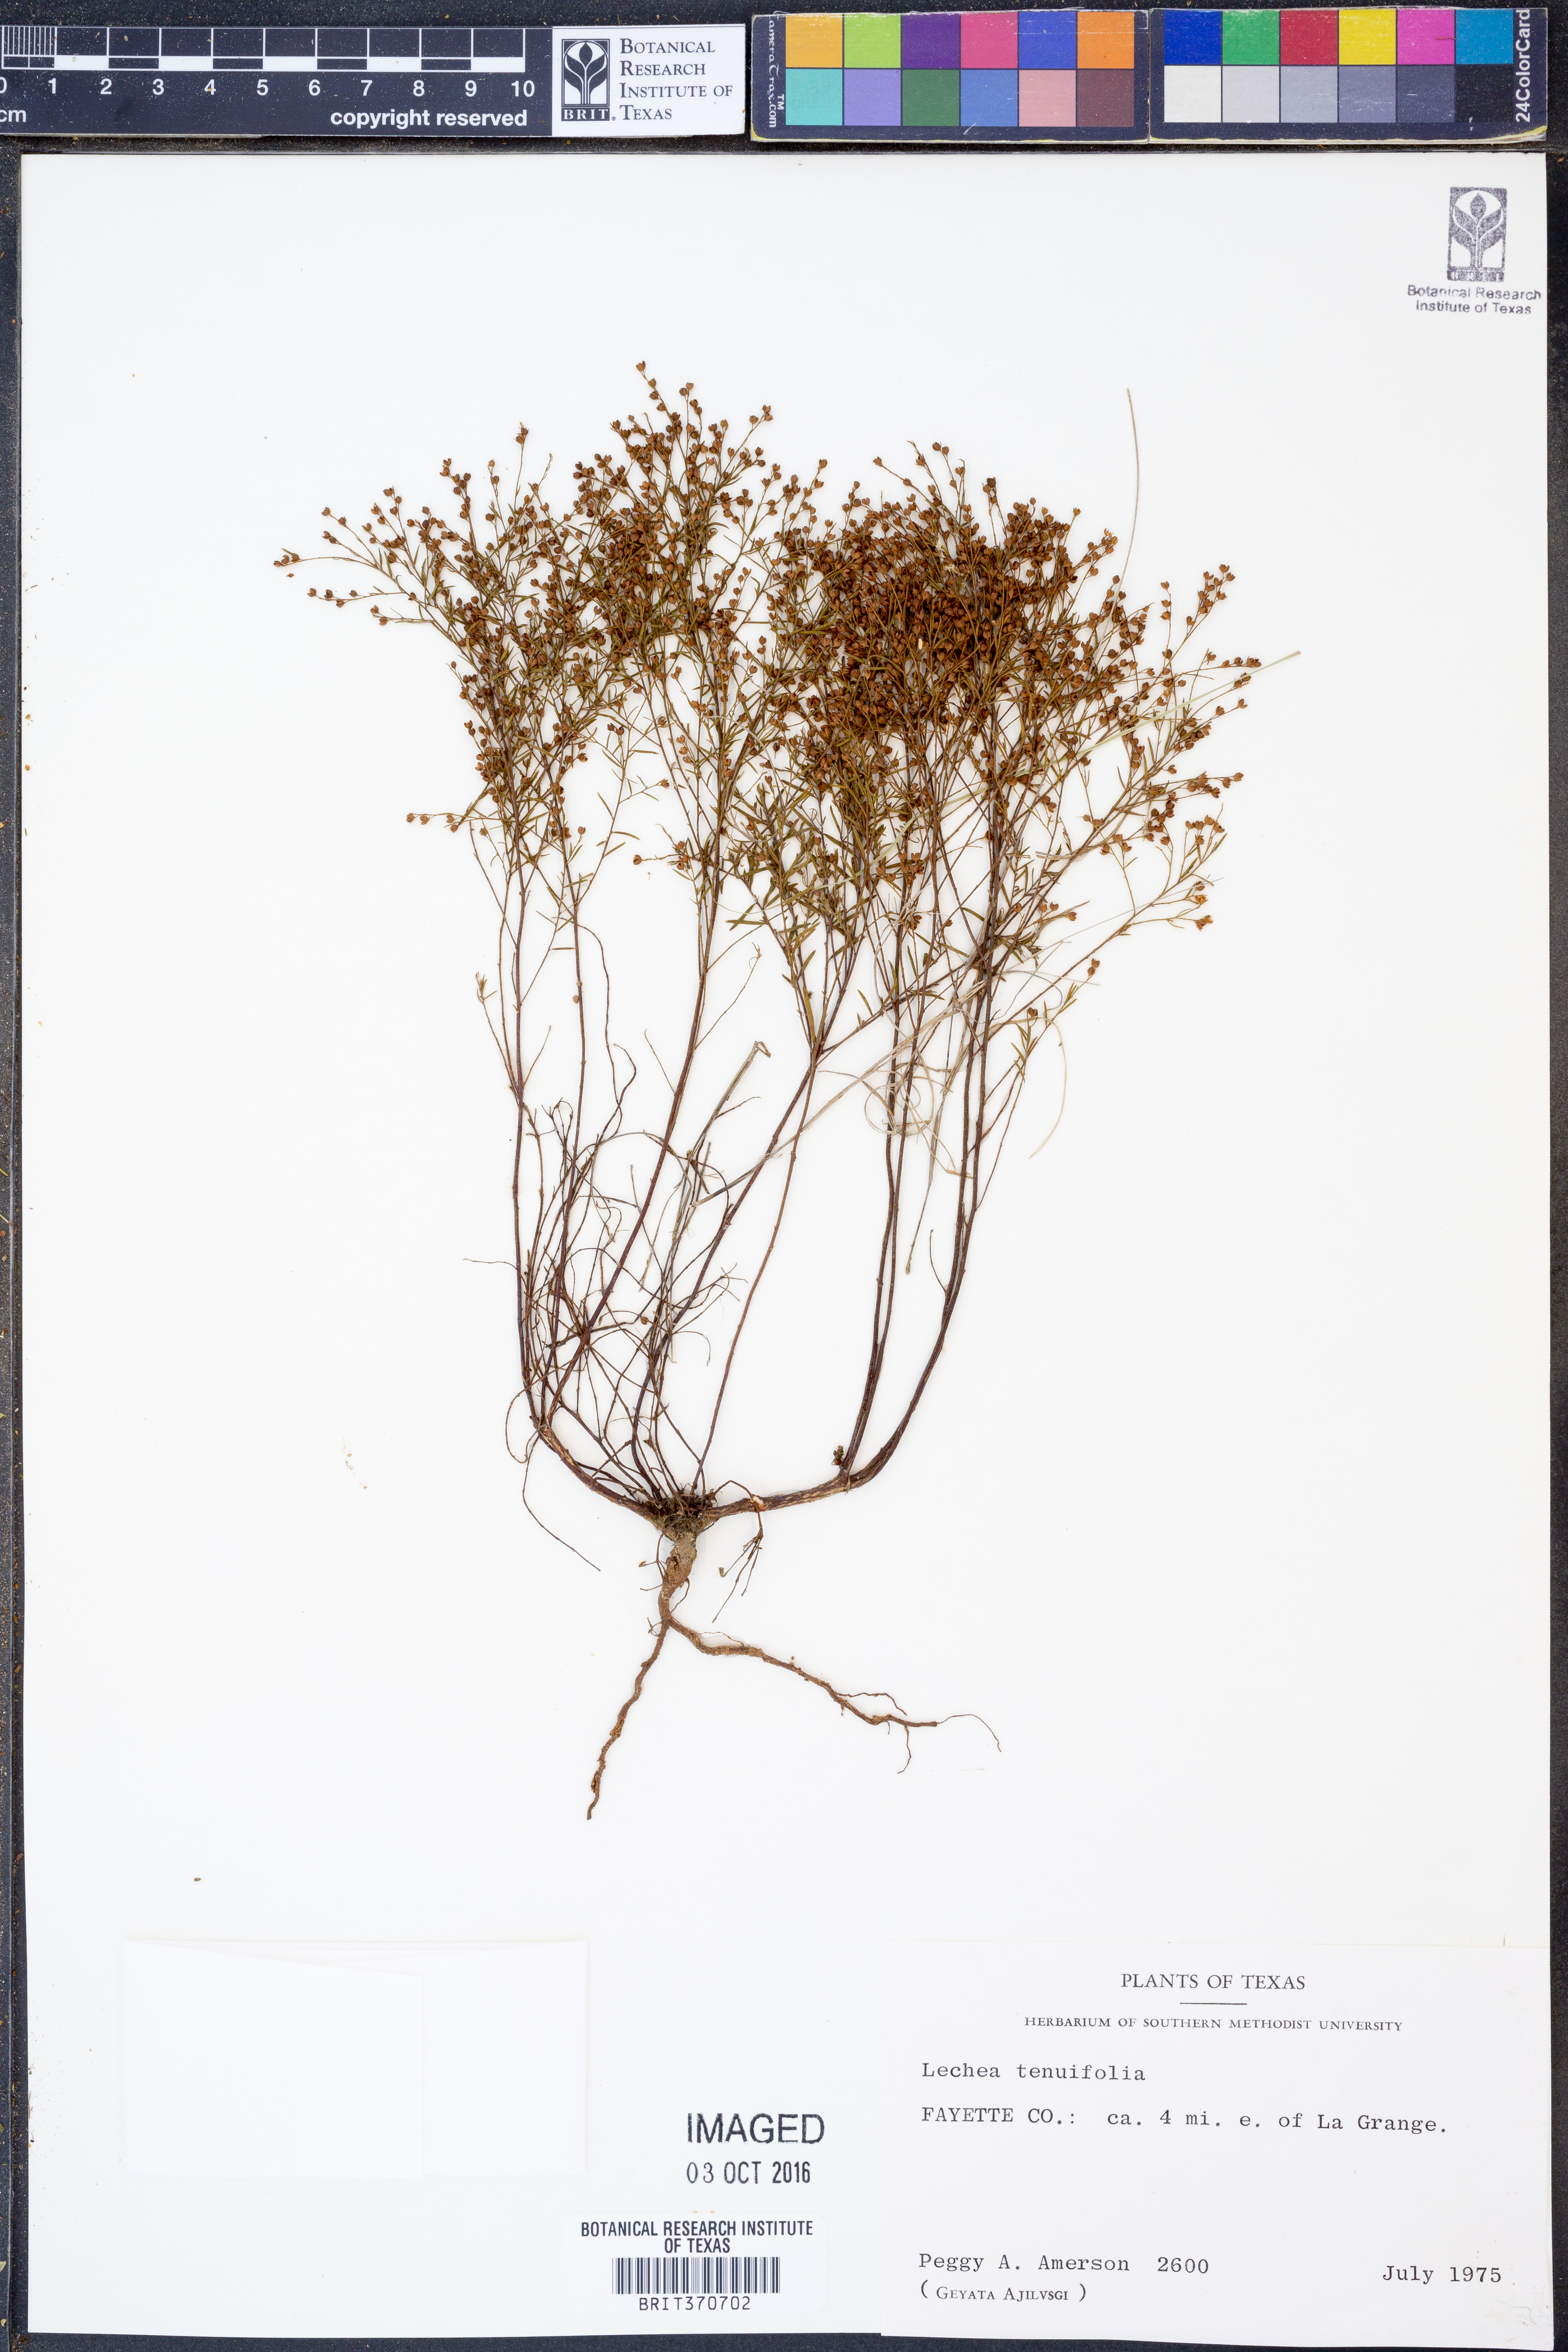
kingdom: Plantae
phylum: Tracheophyta
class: Magnoliopsida
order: Malvales
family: Cistaceae
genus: Lechea
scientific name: Lechea tenuifolia
